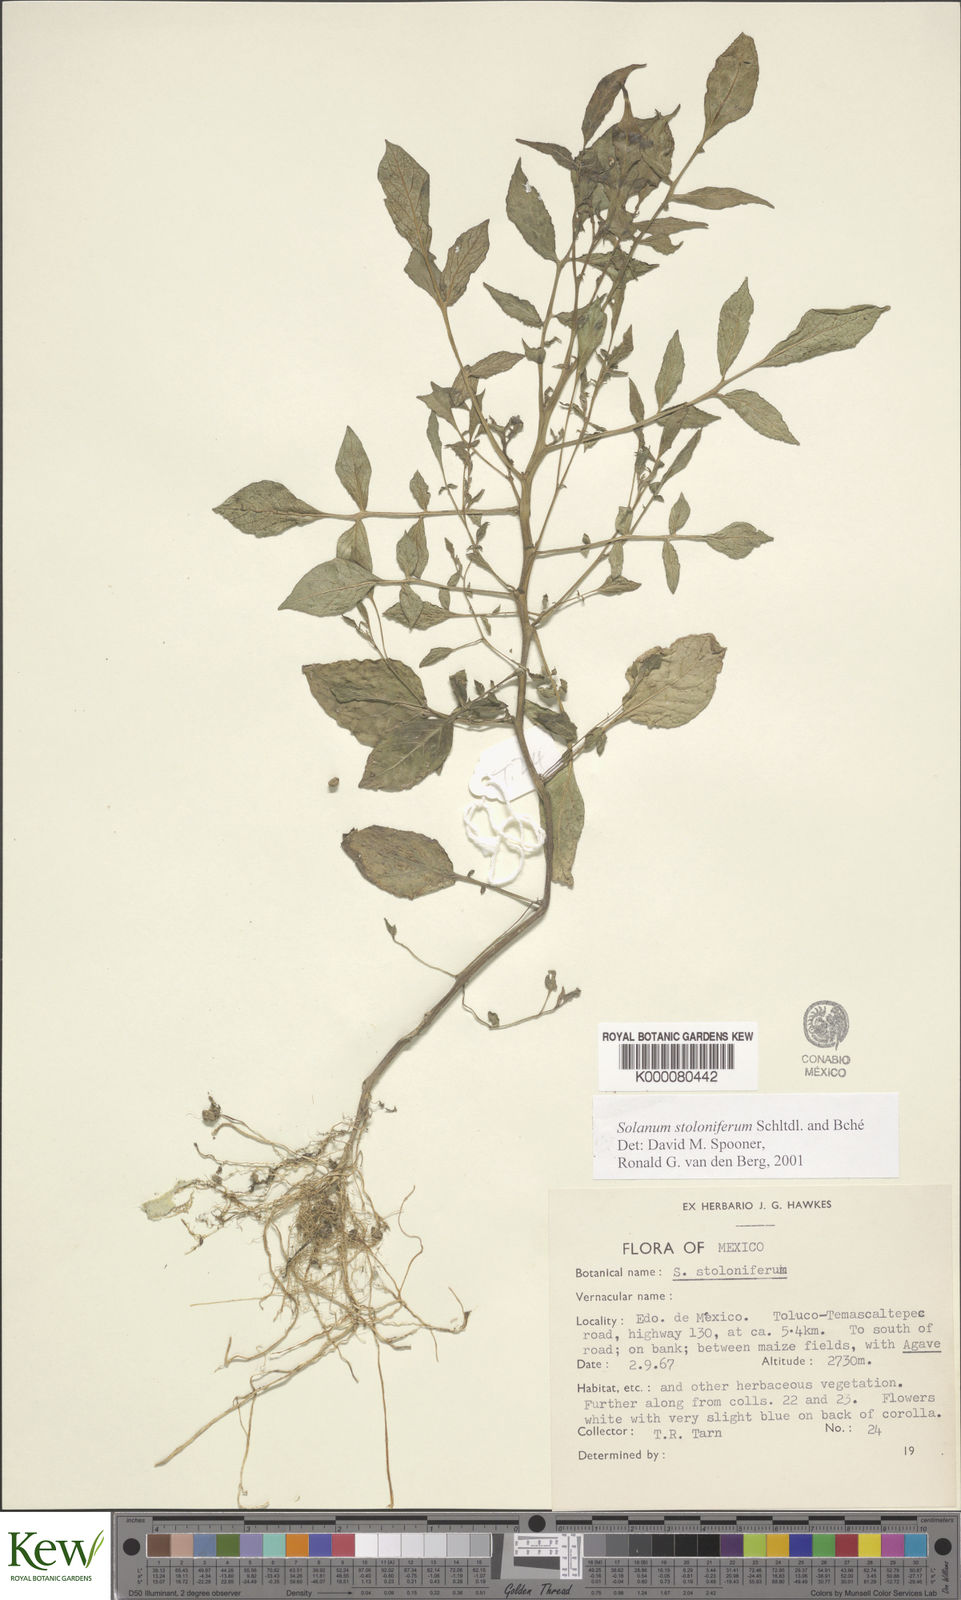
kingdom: Plantae
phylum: Tracheophyta
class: Magnoliopsida
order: Solanales
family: Solanaceae
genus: Solanum
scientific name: Solanum stoloniferum
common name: Fendler's nighshade
